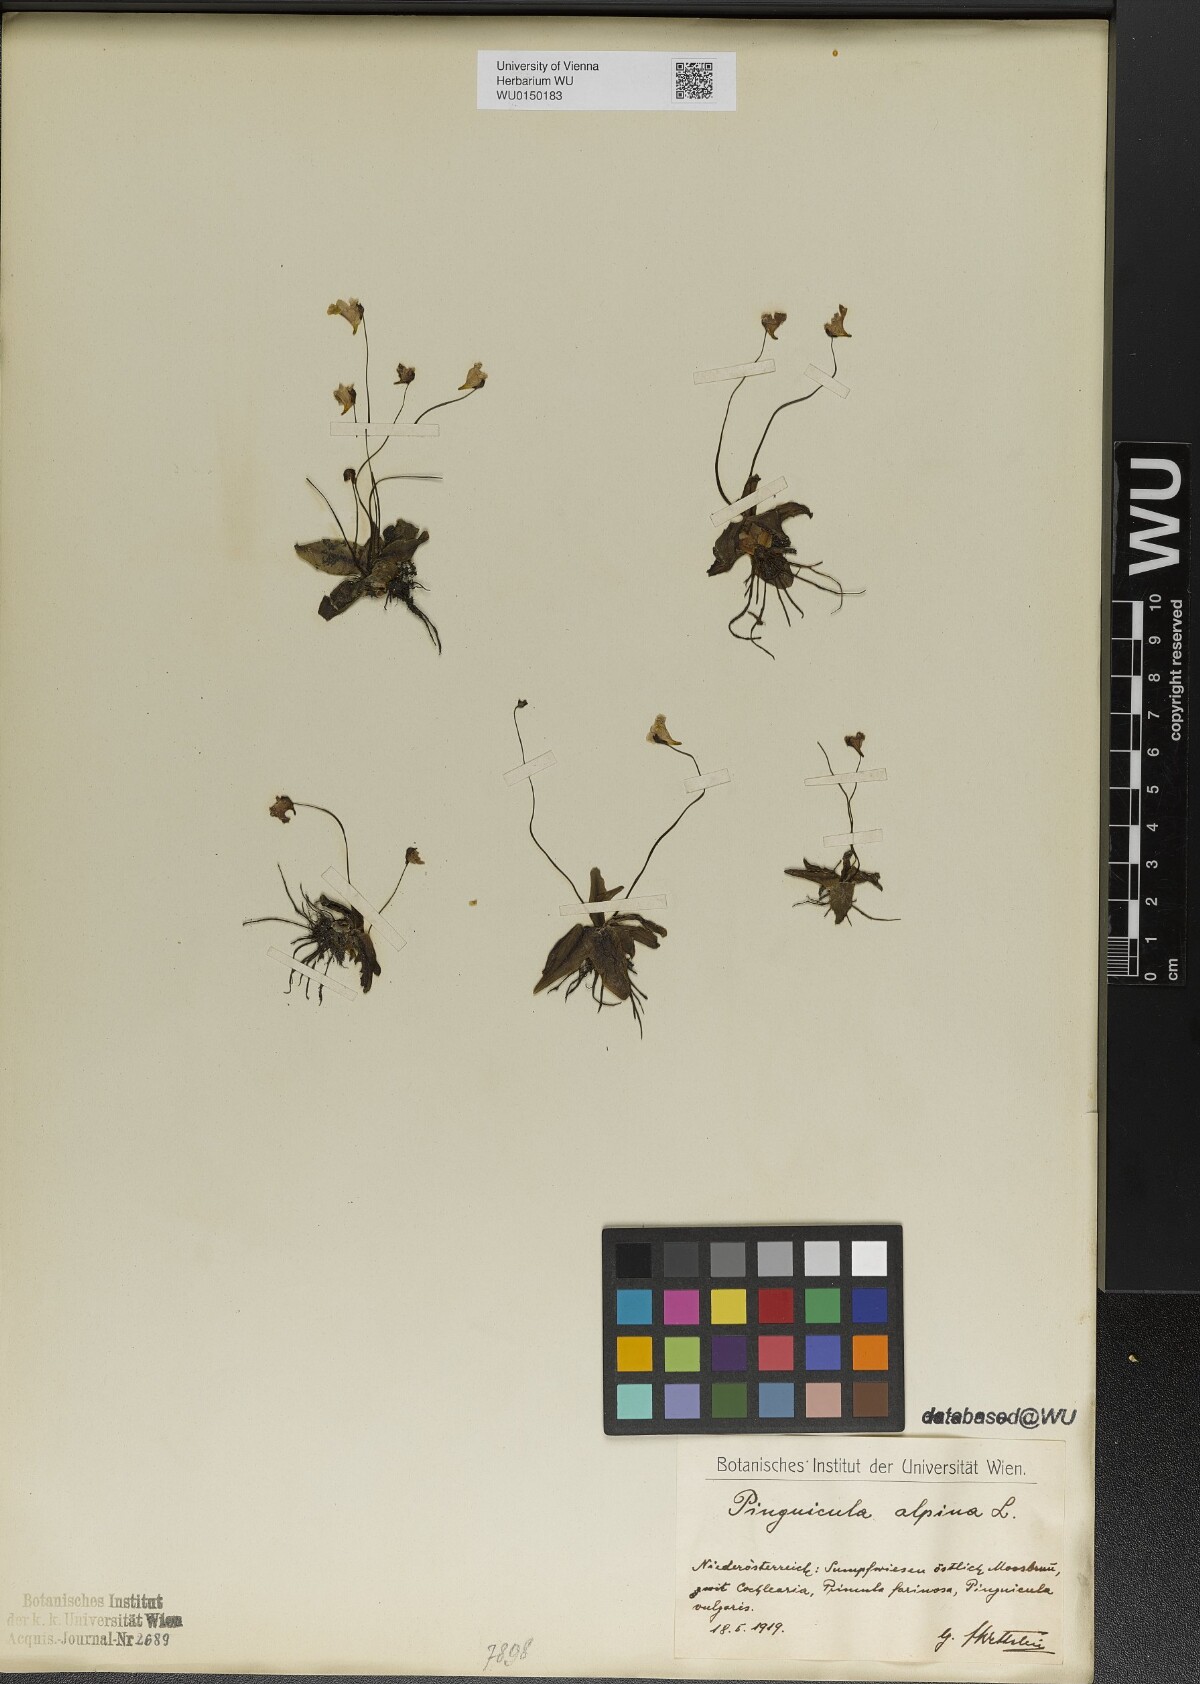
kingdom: Plantae
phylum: Tracheophyta
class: Magnoliopsida
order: Lamiales
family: Lentibulariaceae
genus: Pinguicula
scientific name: Pinguicula alpina
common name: Alpine butterwort
